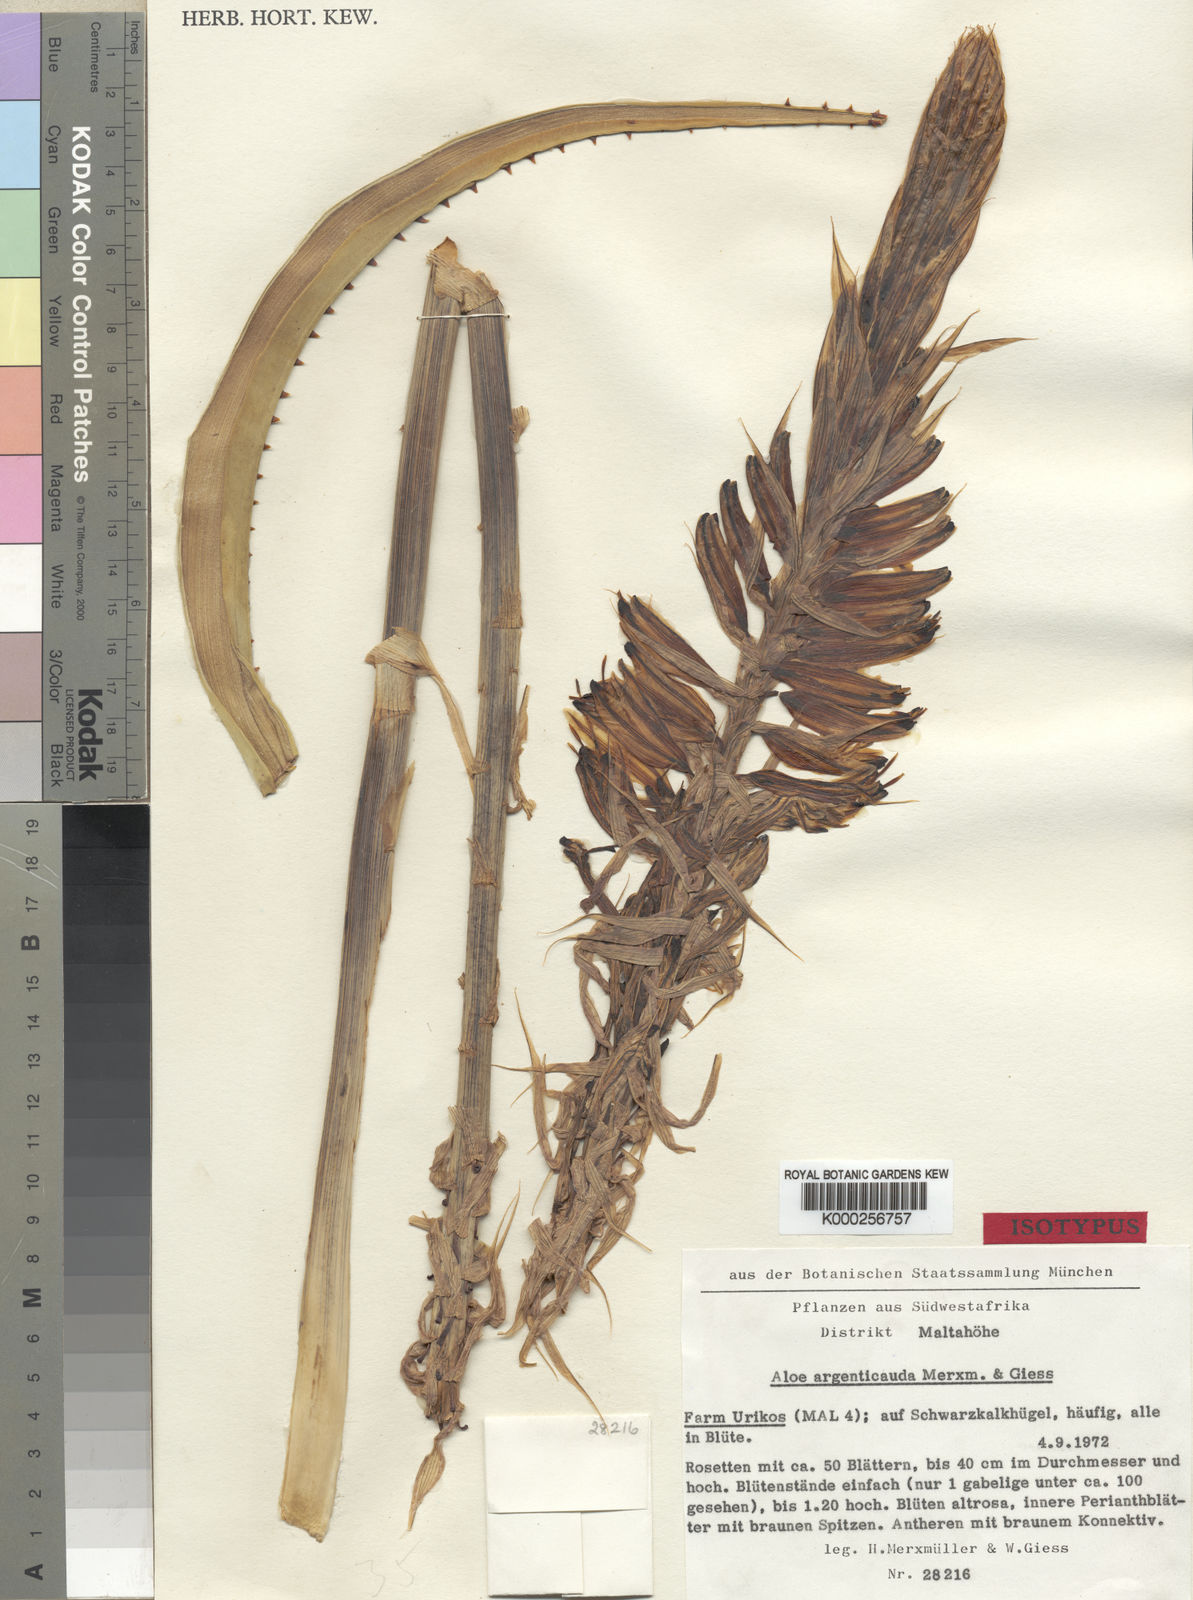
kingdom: Plantae
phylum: Tracheophyta
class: Liliopsida
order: Asparagales
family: Asphodelaceae
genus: Aloe
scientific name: Aloe argenticauda
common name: Silver-tailed aloe
